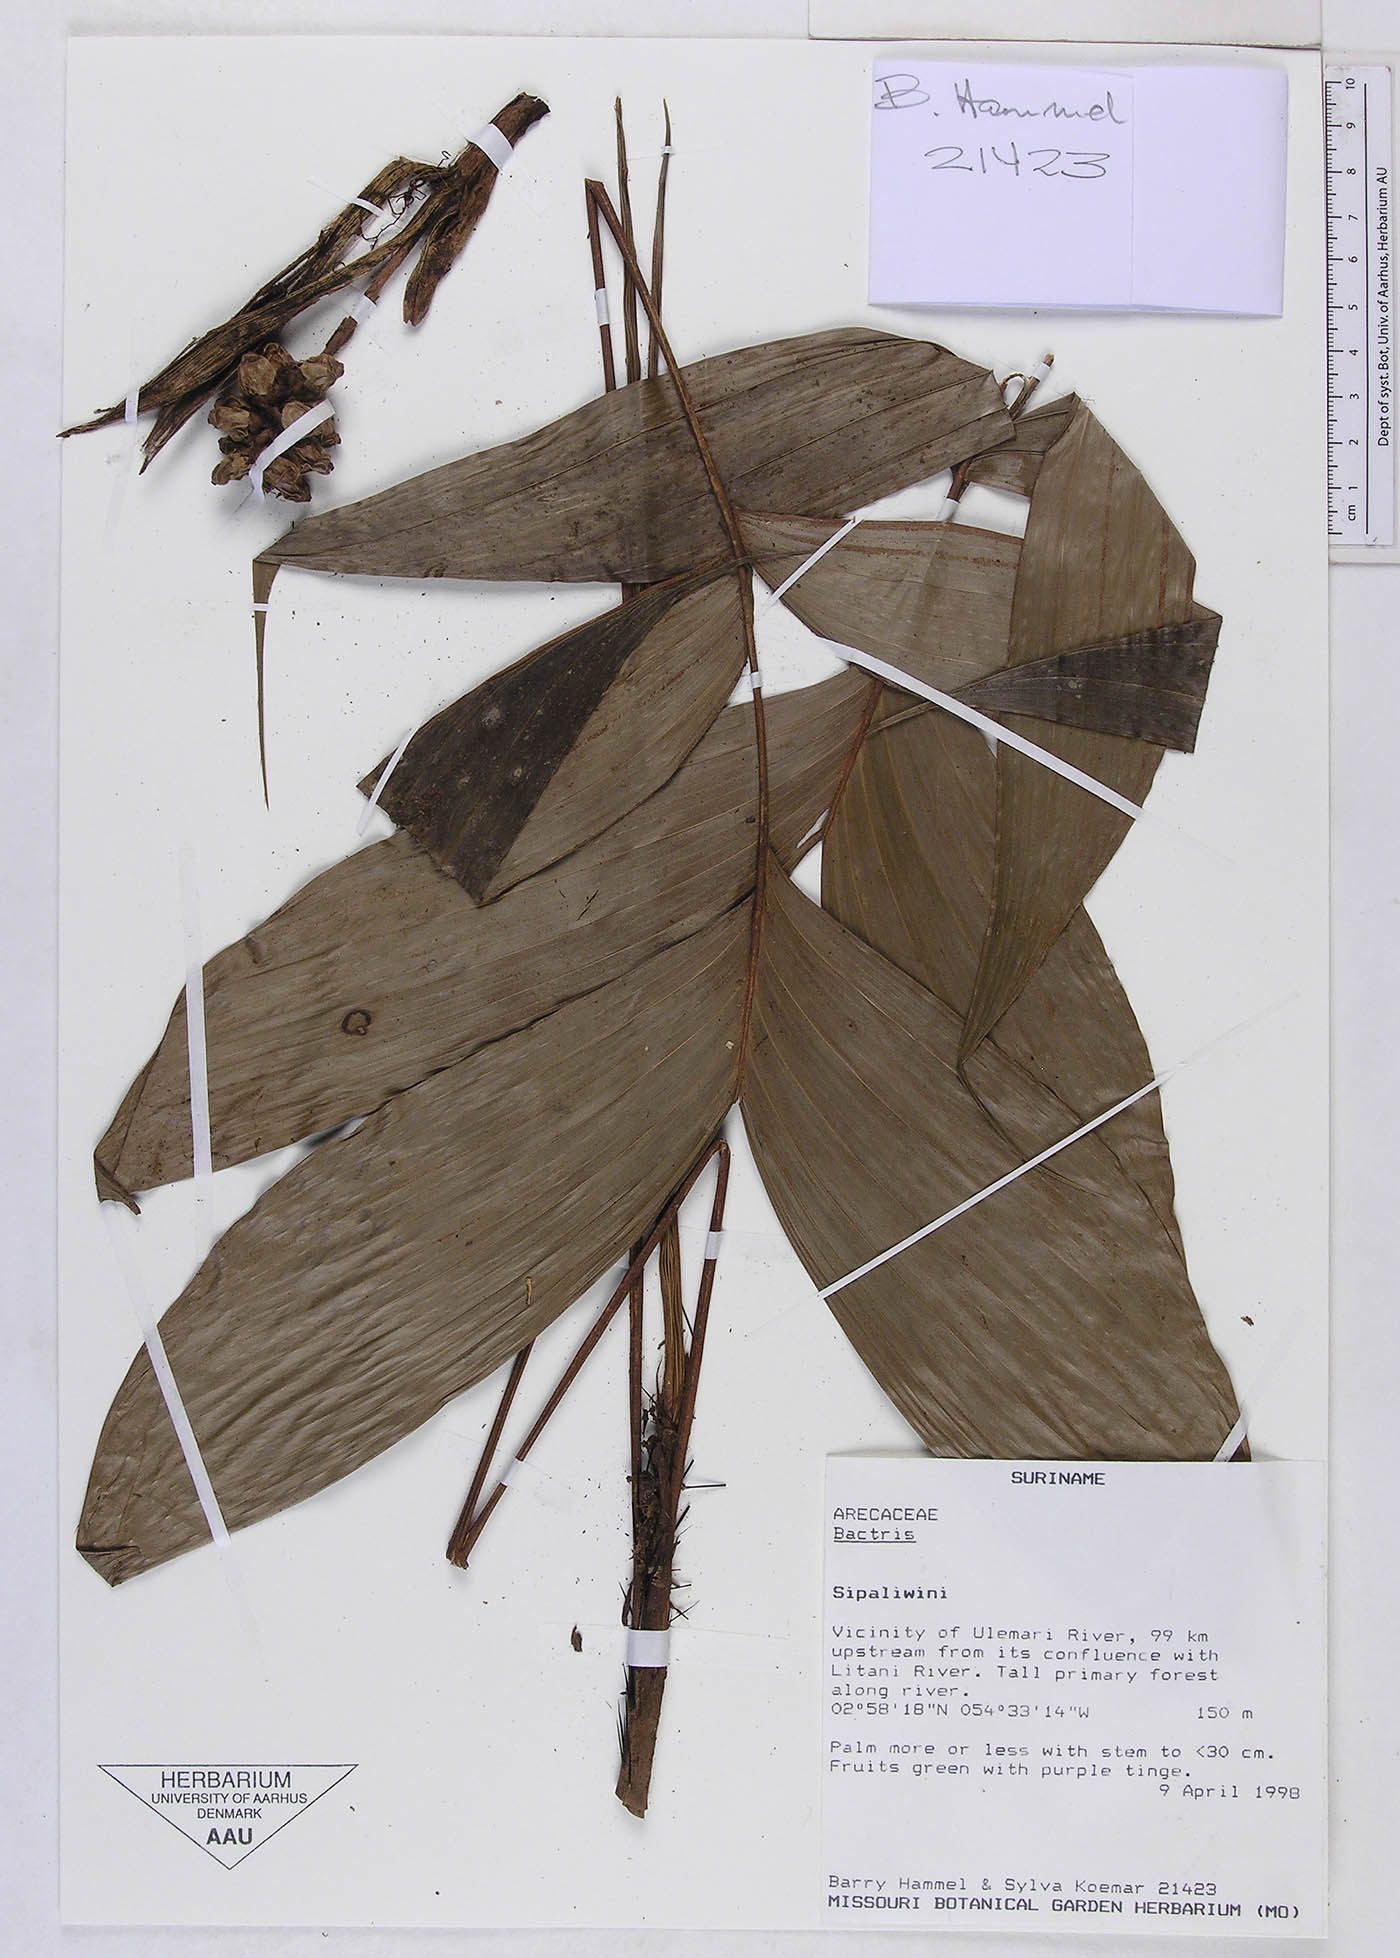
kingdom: Plantae
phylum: Tracheophyta
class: Liliopsida
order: Arecales
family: Arecaceae
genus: Bactris
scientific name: Bactris
